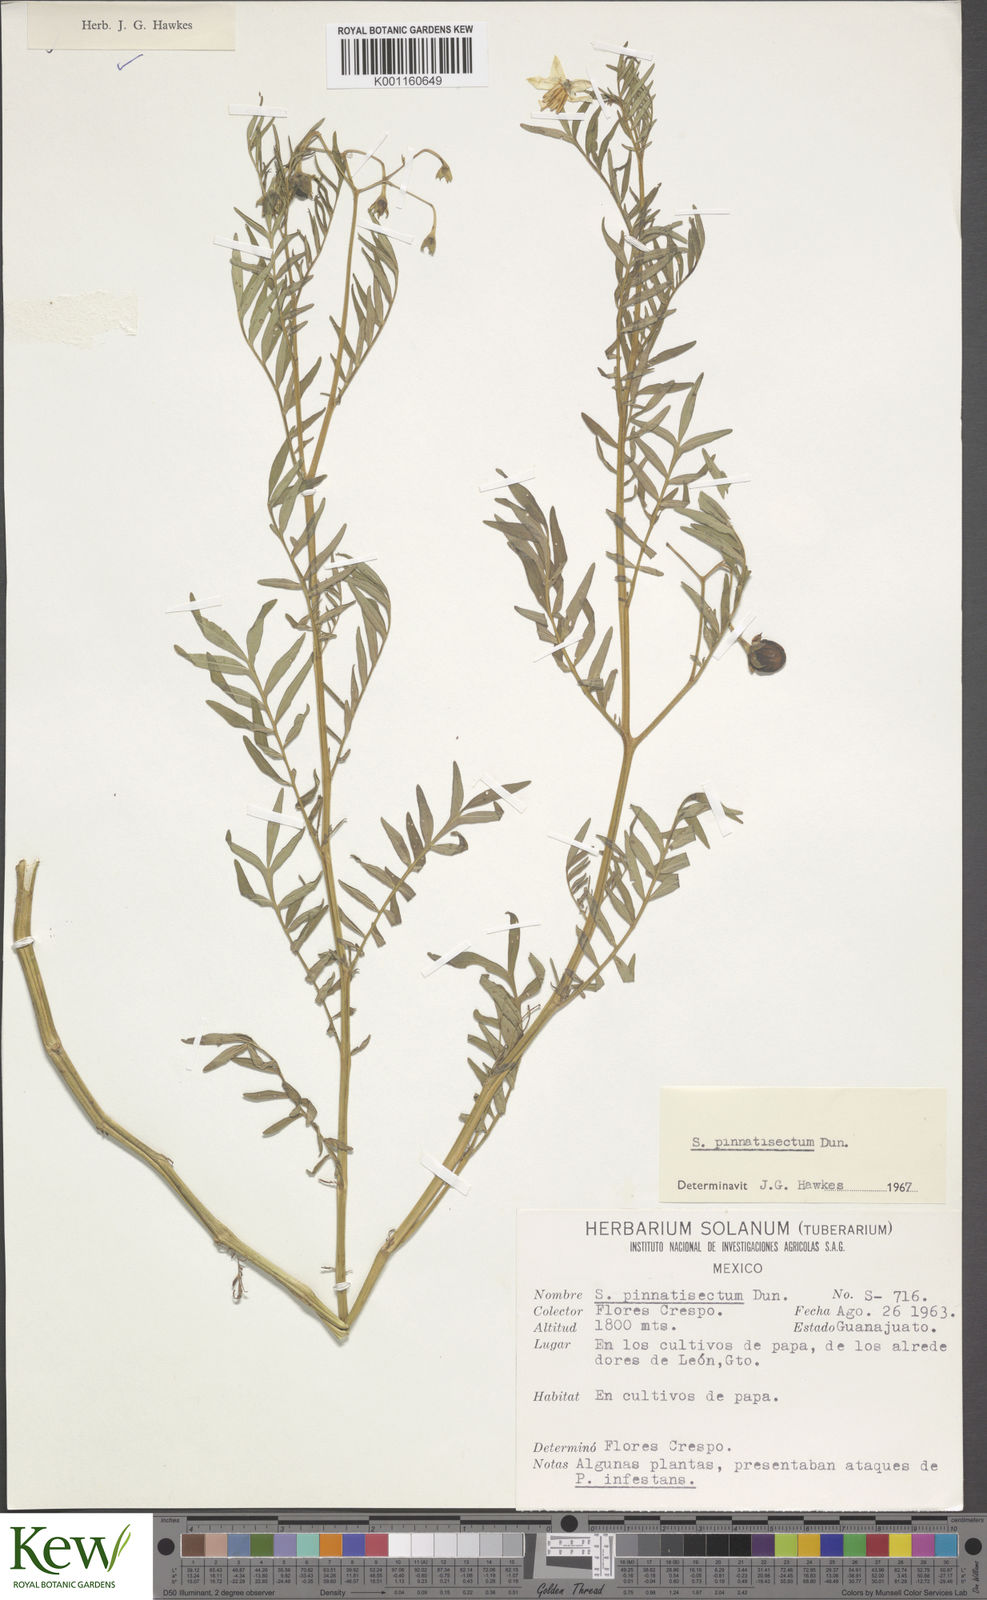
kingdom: Plantae
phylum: Tracheophyta
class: Magnoliopsida
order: Solanales
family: Solanaceae
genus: Solanum
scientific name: Solanum pinnatisectum
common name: Tansyleaf nightshade
